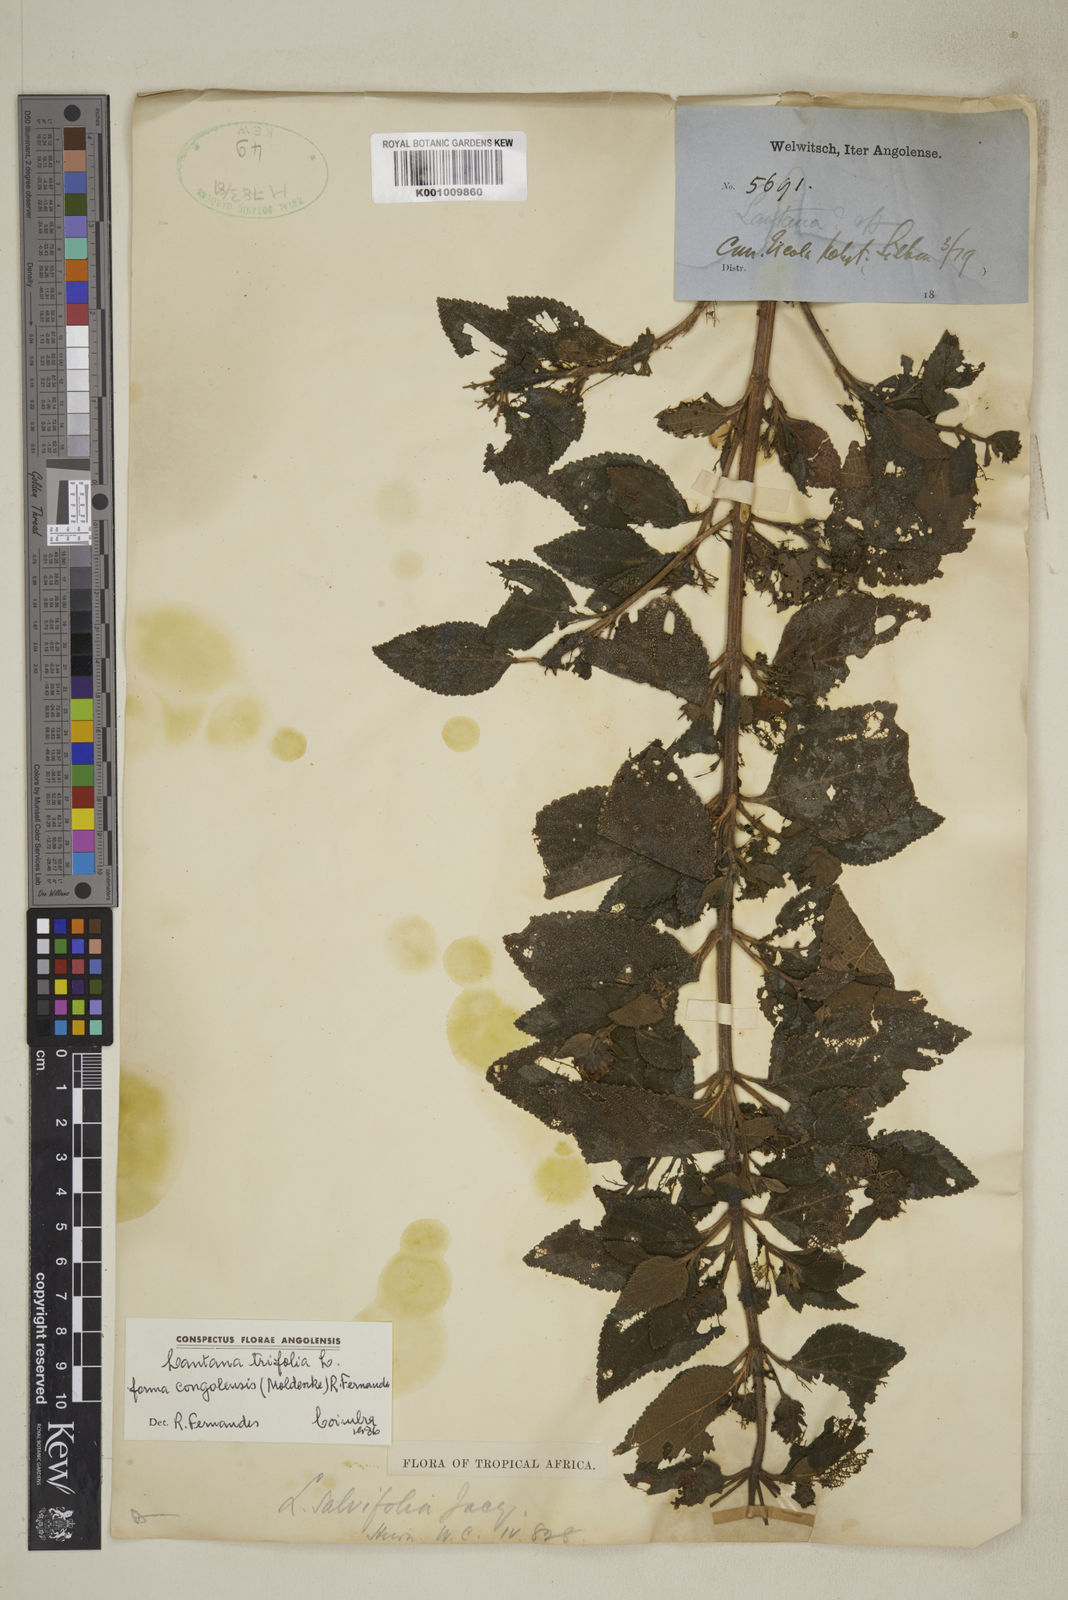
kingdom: Plantae
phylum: Tracheophyta
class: Magnoliopsida
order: Lamiales
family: Verbenaceae
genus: Lantana
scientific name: Lantana trifolia
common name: Sweet-sage
